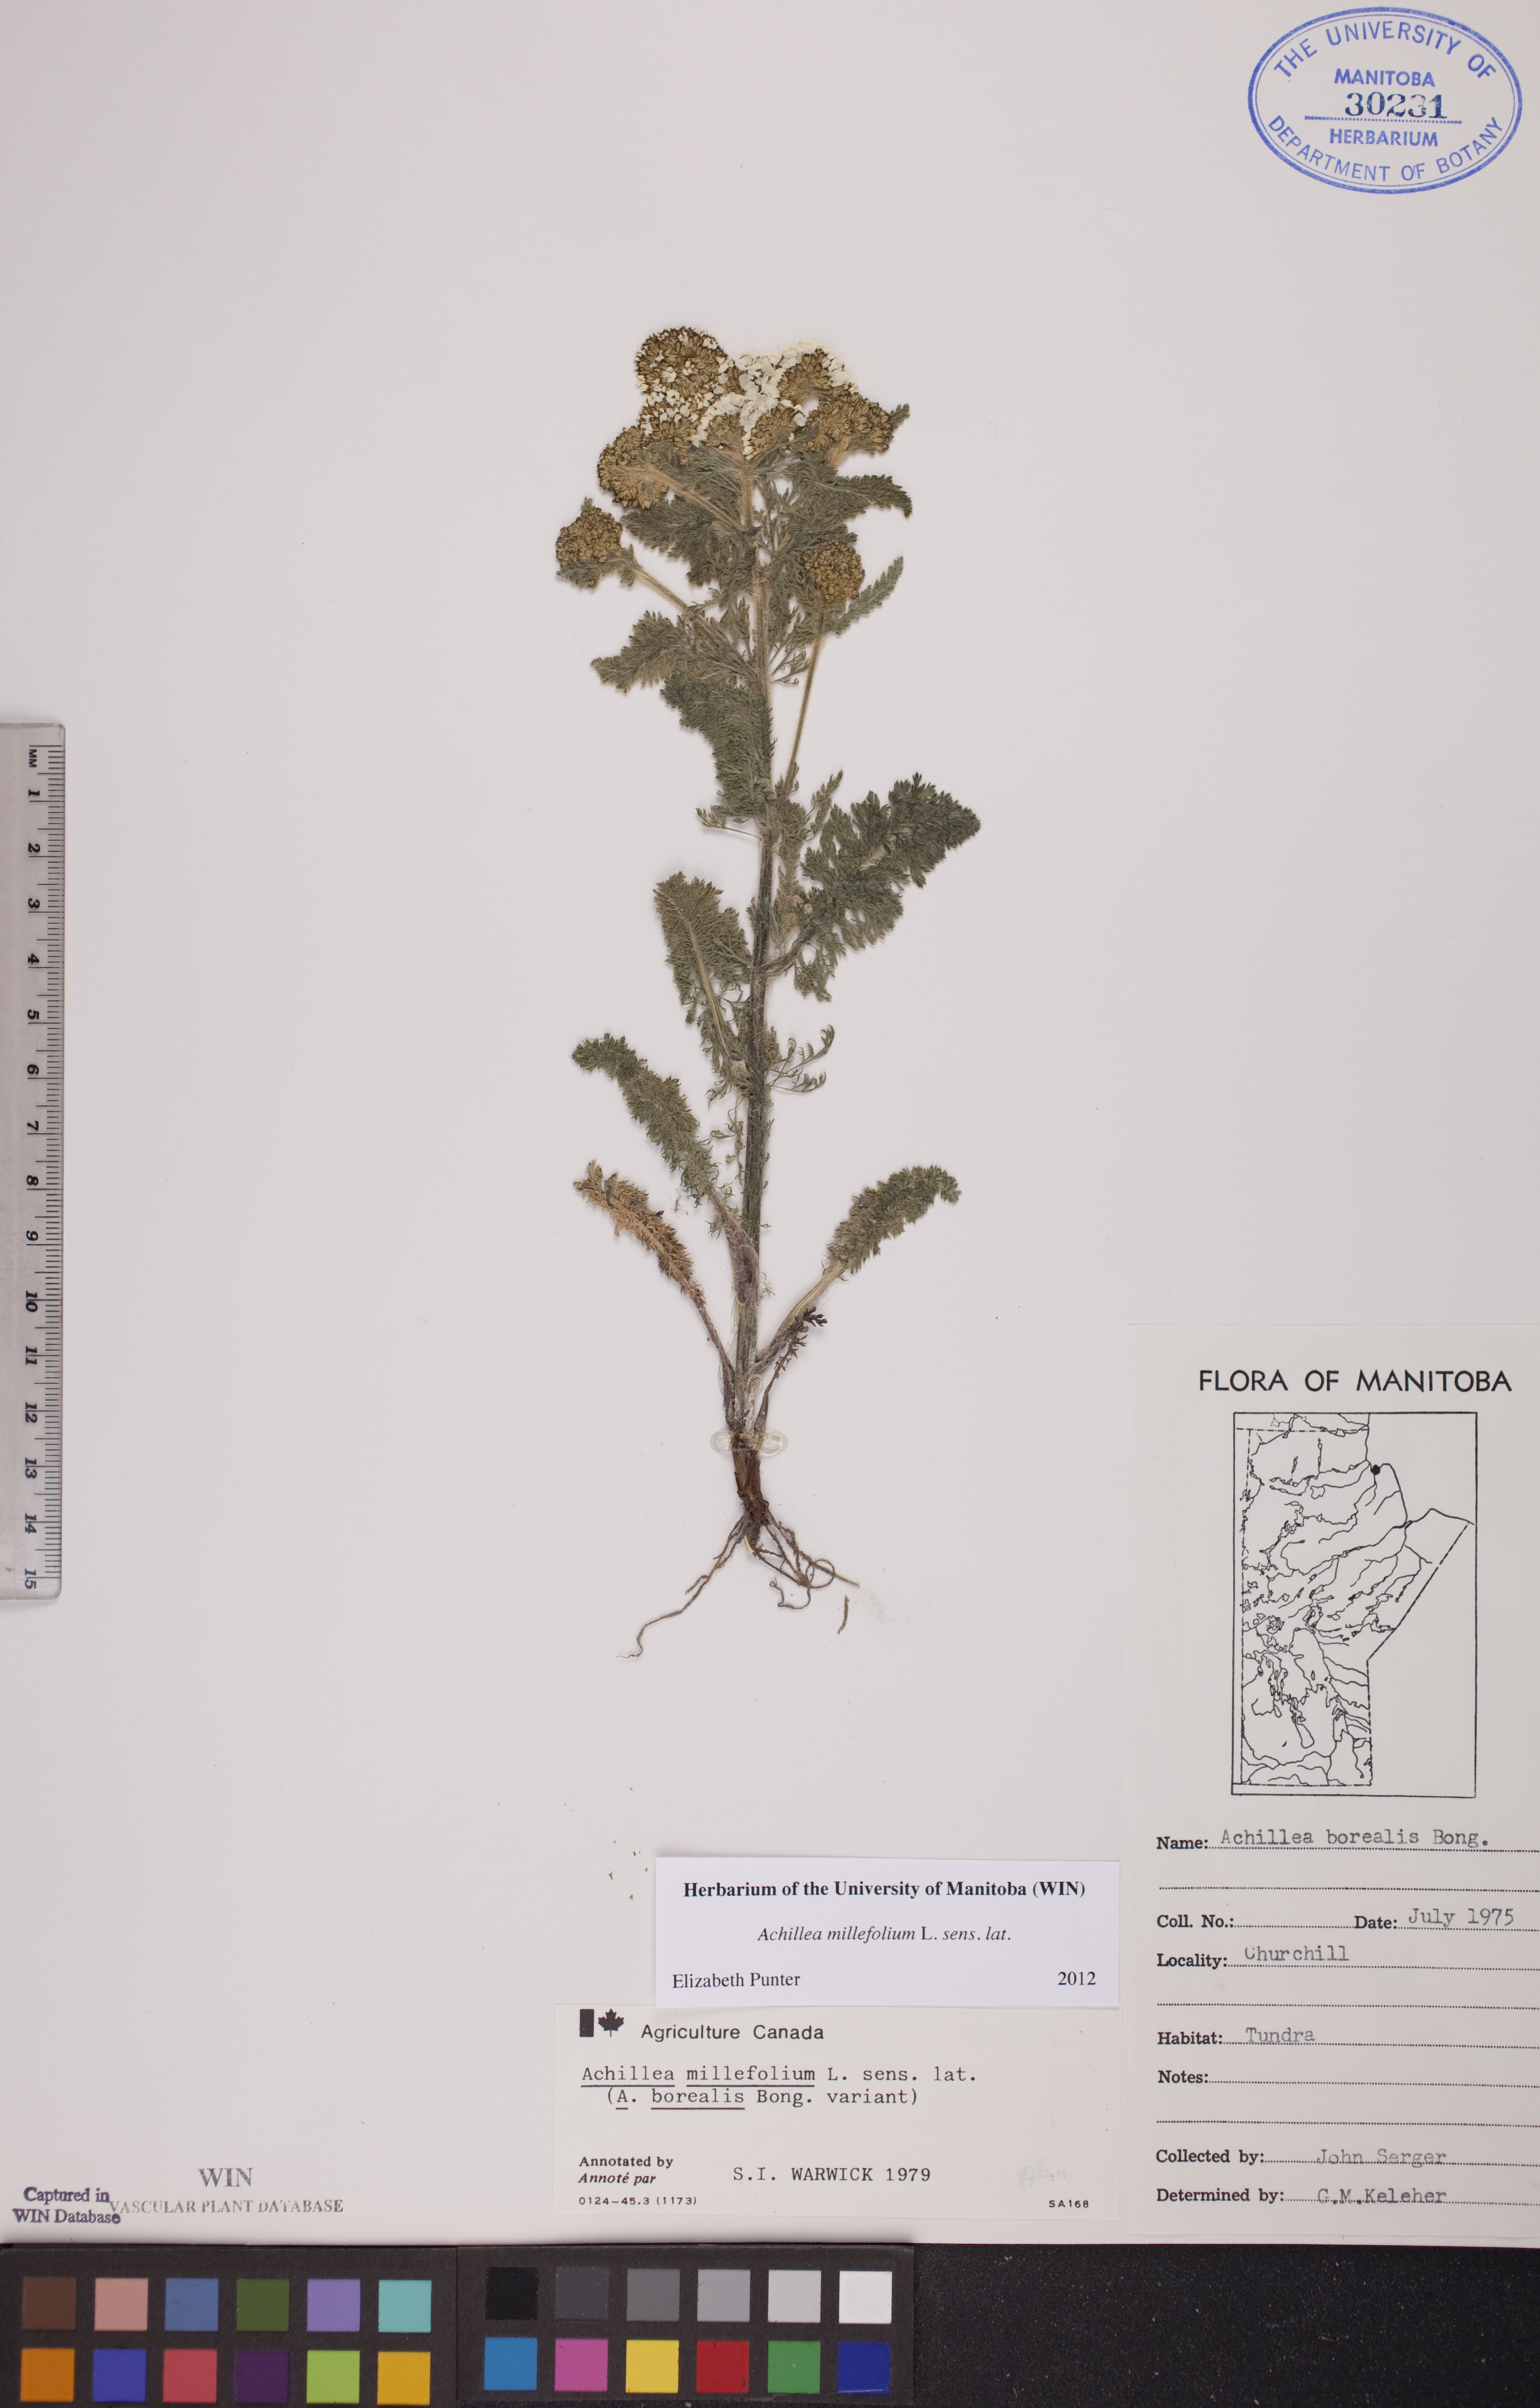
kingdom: Plantae
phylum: Tracheophyta
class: Magnoliopsida
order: Asterales
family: Asteraceae
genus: Achillea
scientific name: Achillea millefolium
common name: Yarrow
